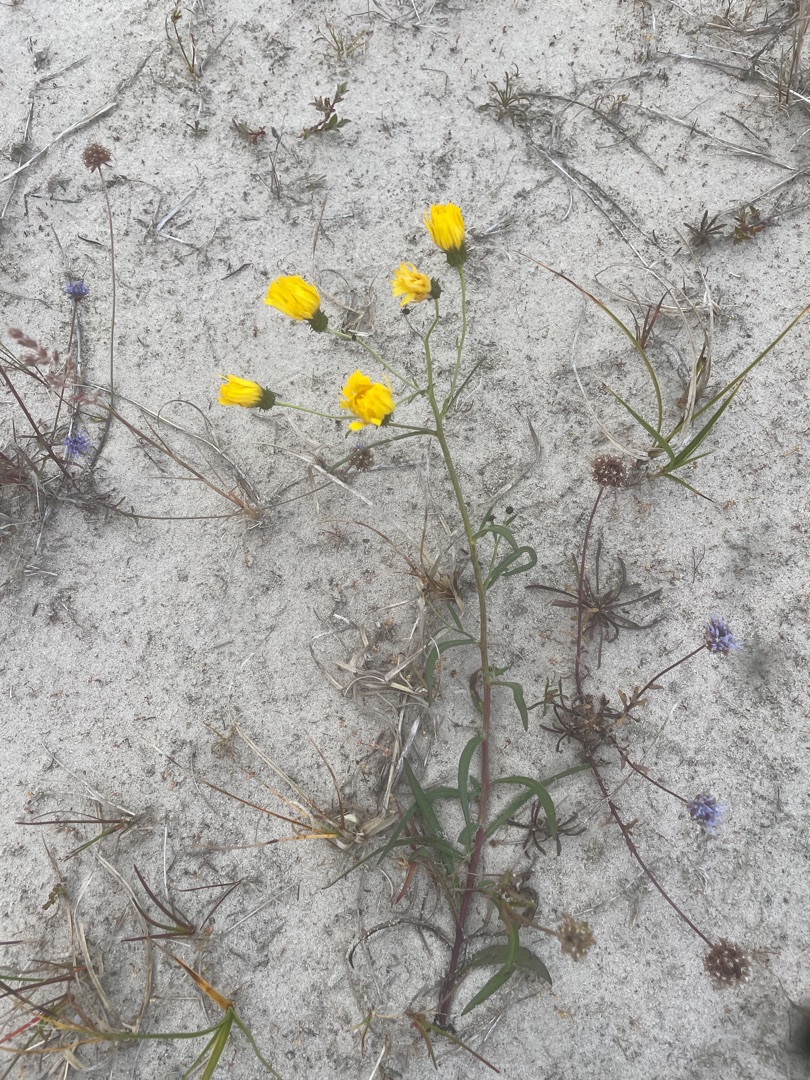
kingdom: Plantae
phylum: Tracheophyta
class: Magnoliopsida
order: Asterales
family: Asteraceae
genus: Crepis
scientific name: Crepis tectorum
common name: Tag-høgeskæg
